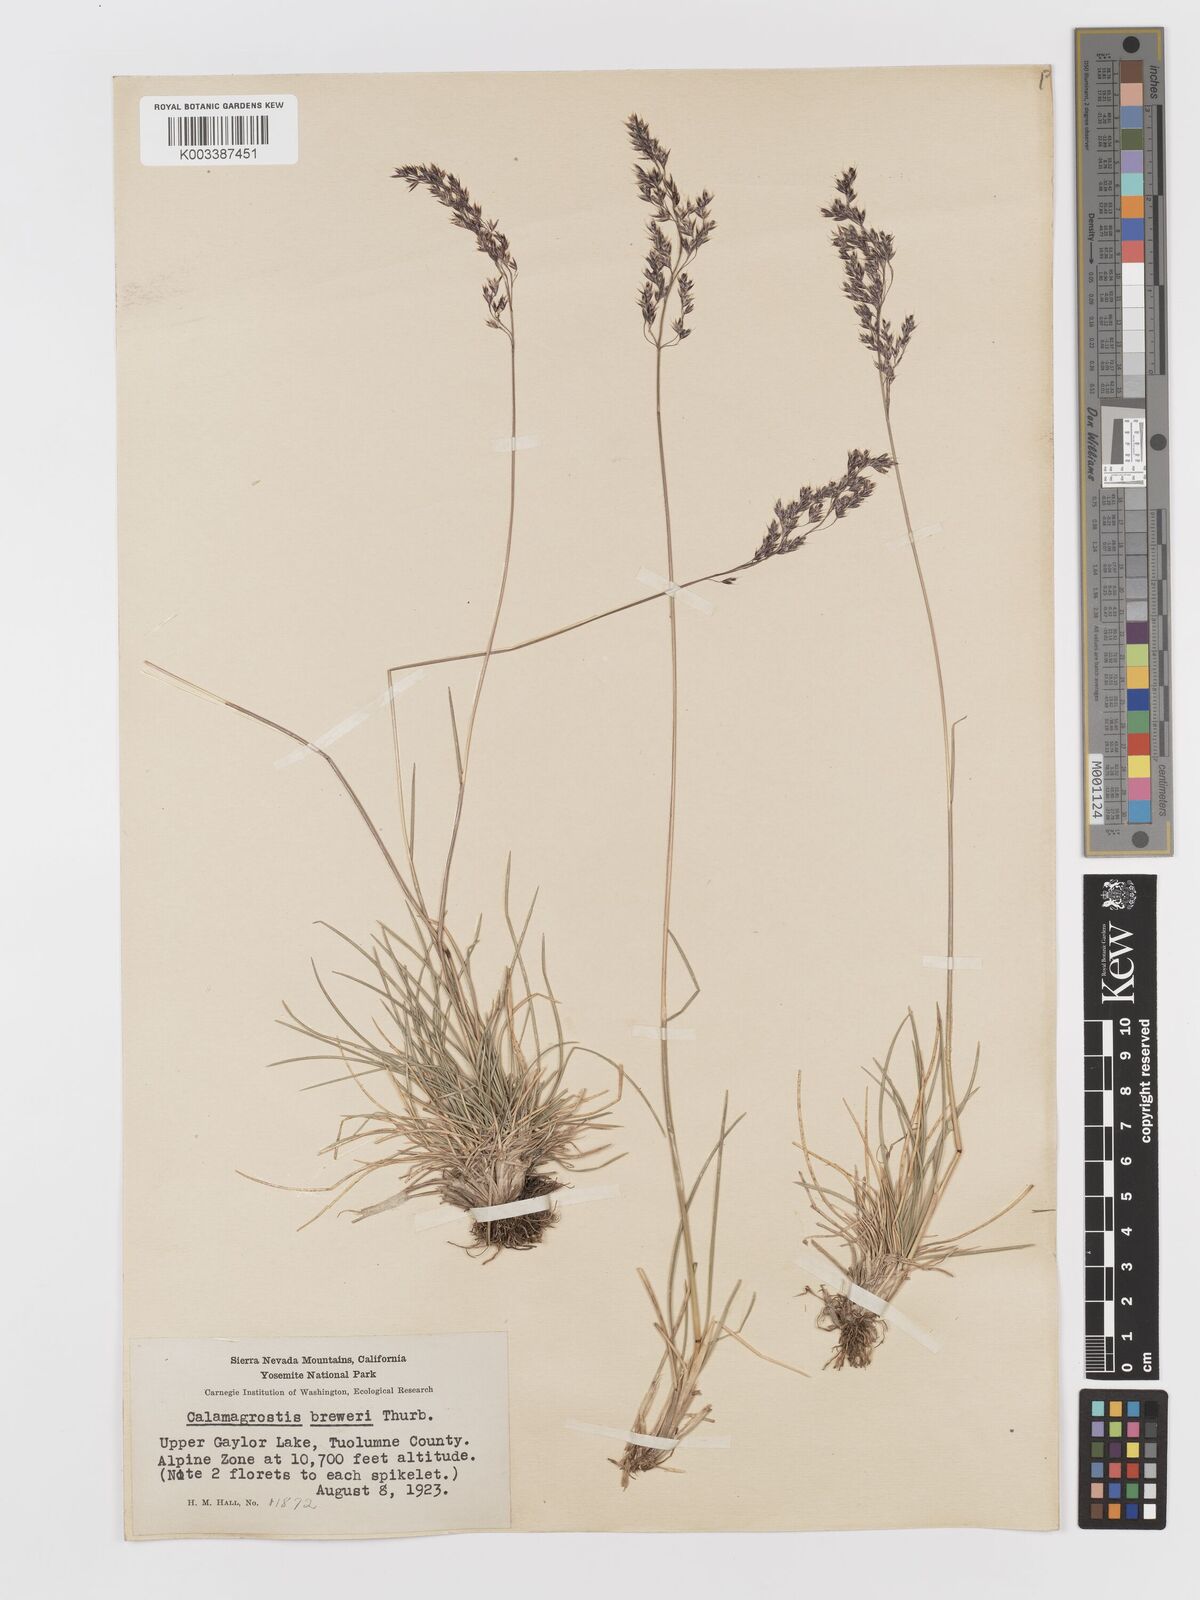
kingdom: Plantae
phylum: Tracheophyta
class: Liliopsida
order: Poales
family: Poaceae
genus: Deschampsia
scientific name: Deschampsia
